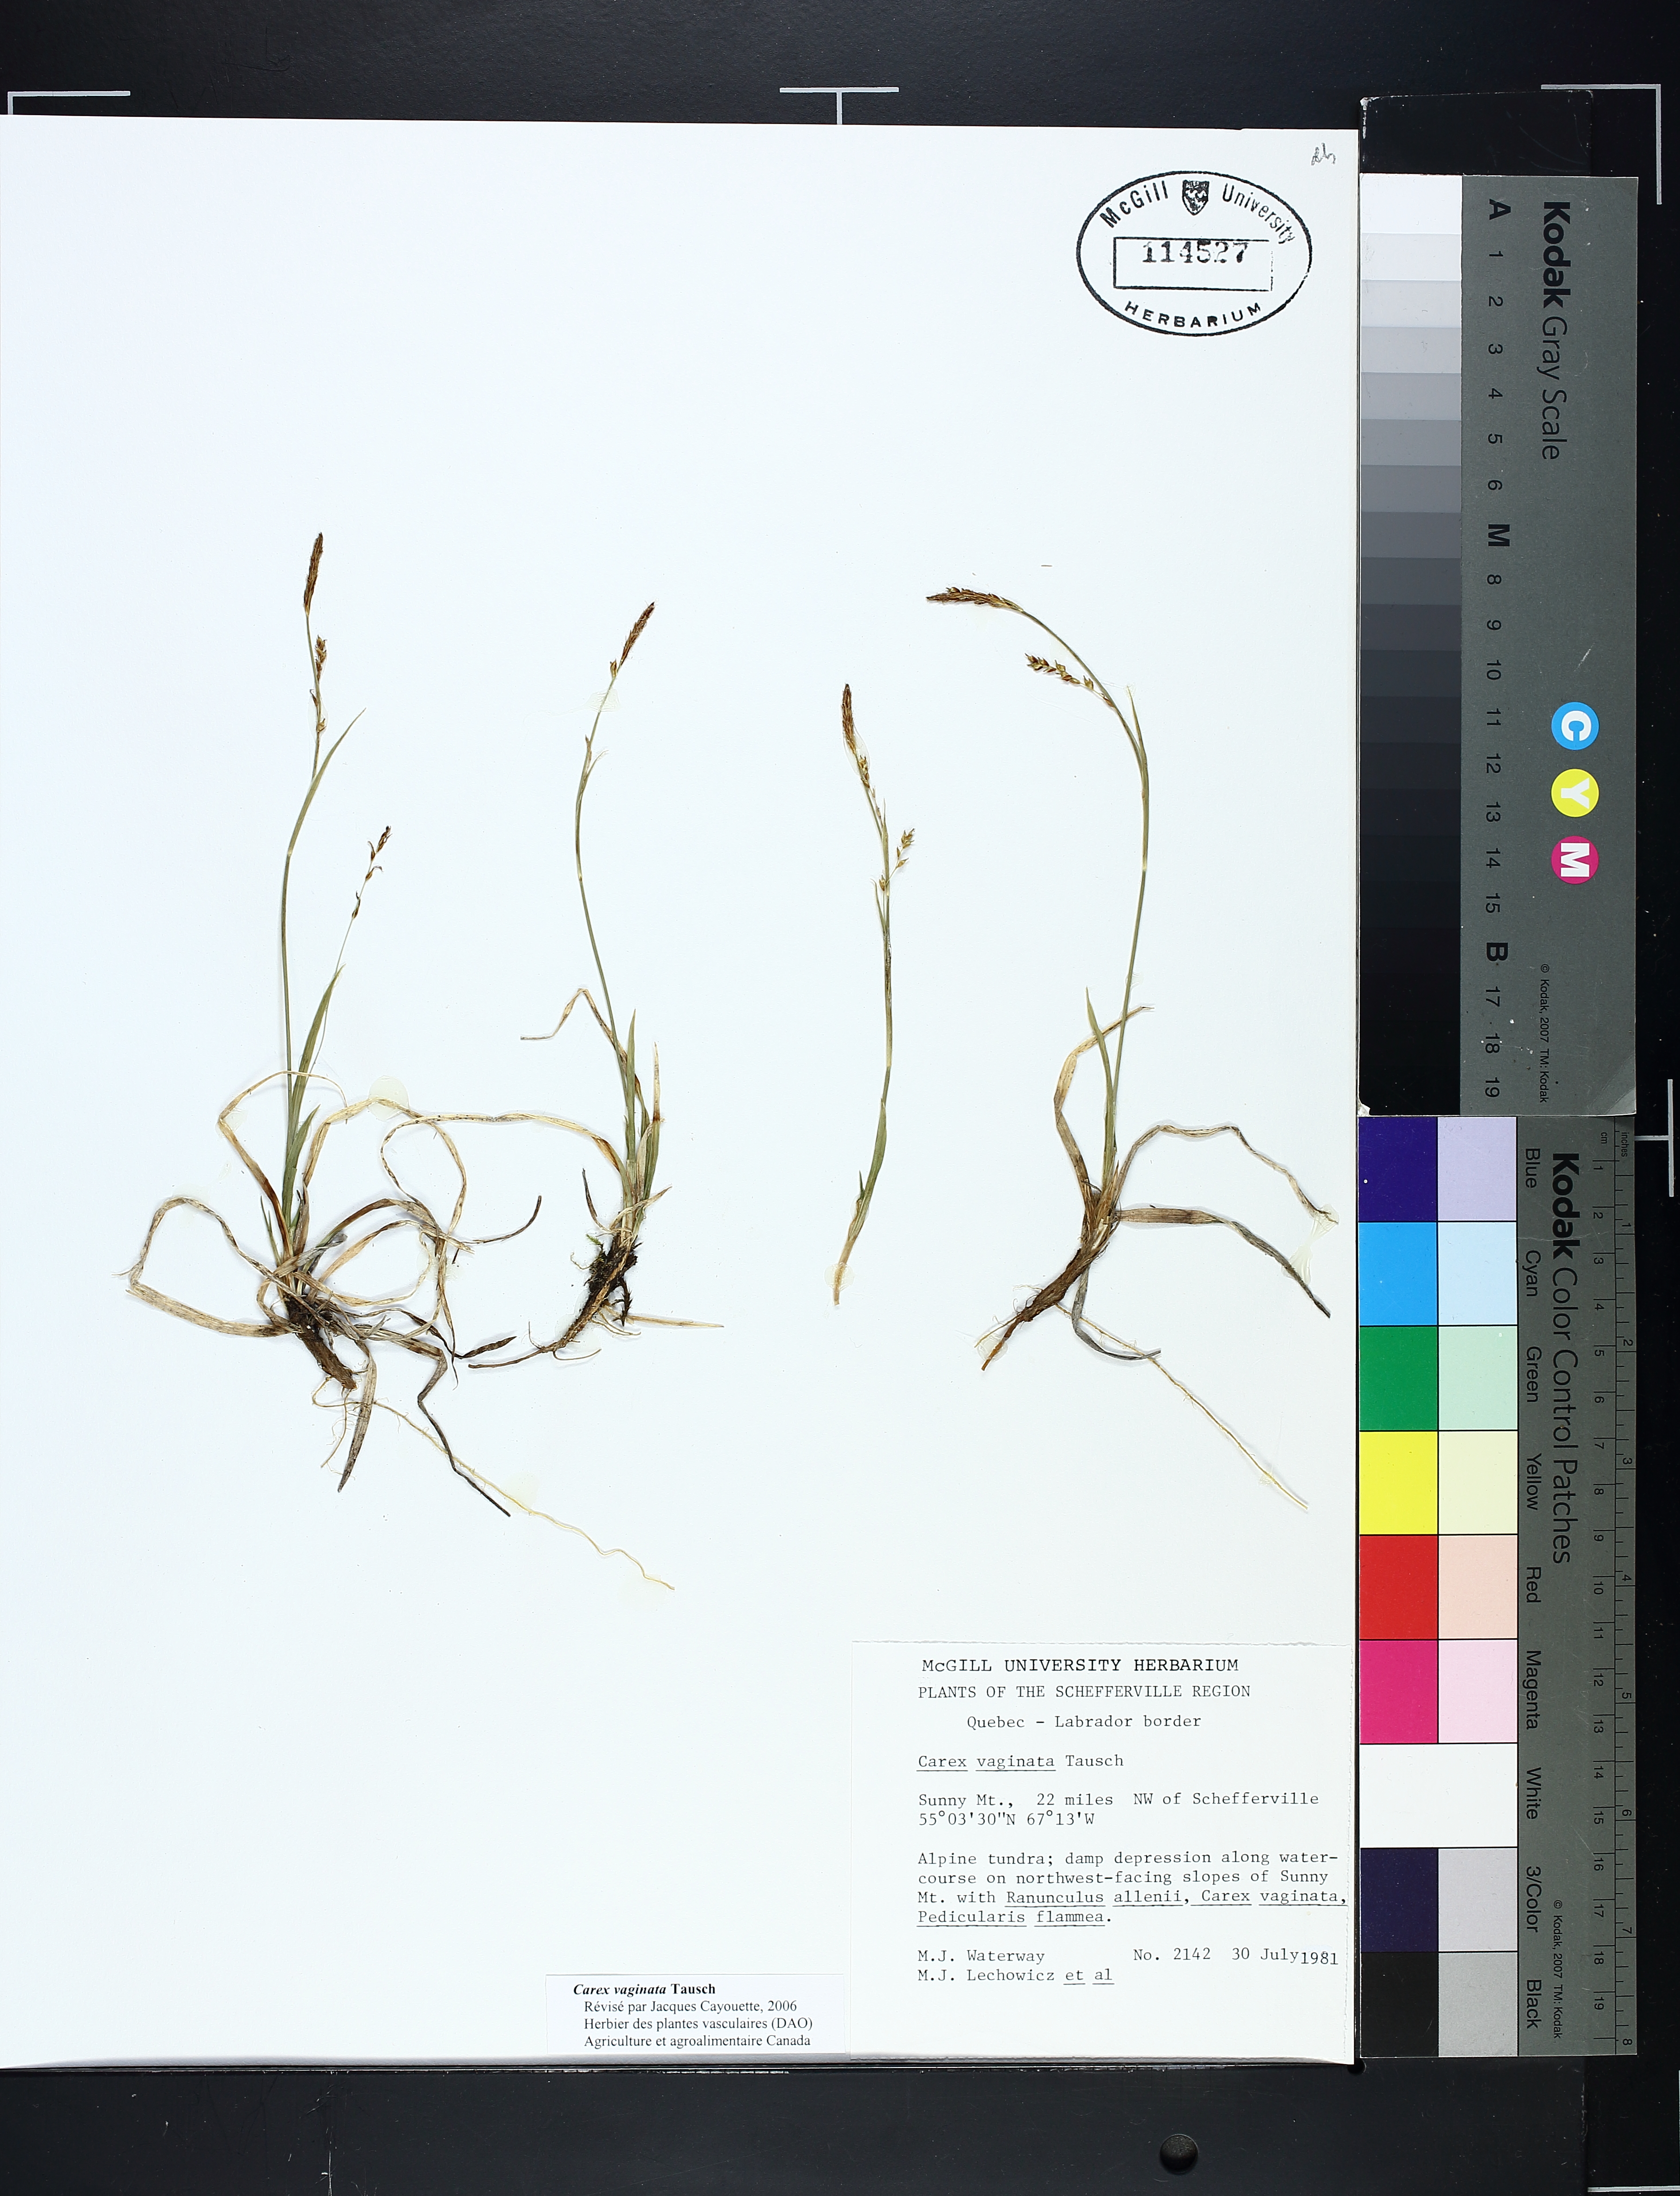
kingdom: Plantae
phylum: Tracheophyta
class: Liliopsida
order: Poales
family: Cyperaceae
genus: Carex
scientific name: Carex vaginata
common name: Sheathed sedge
